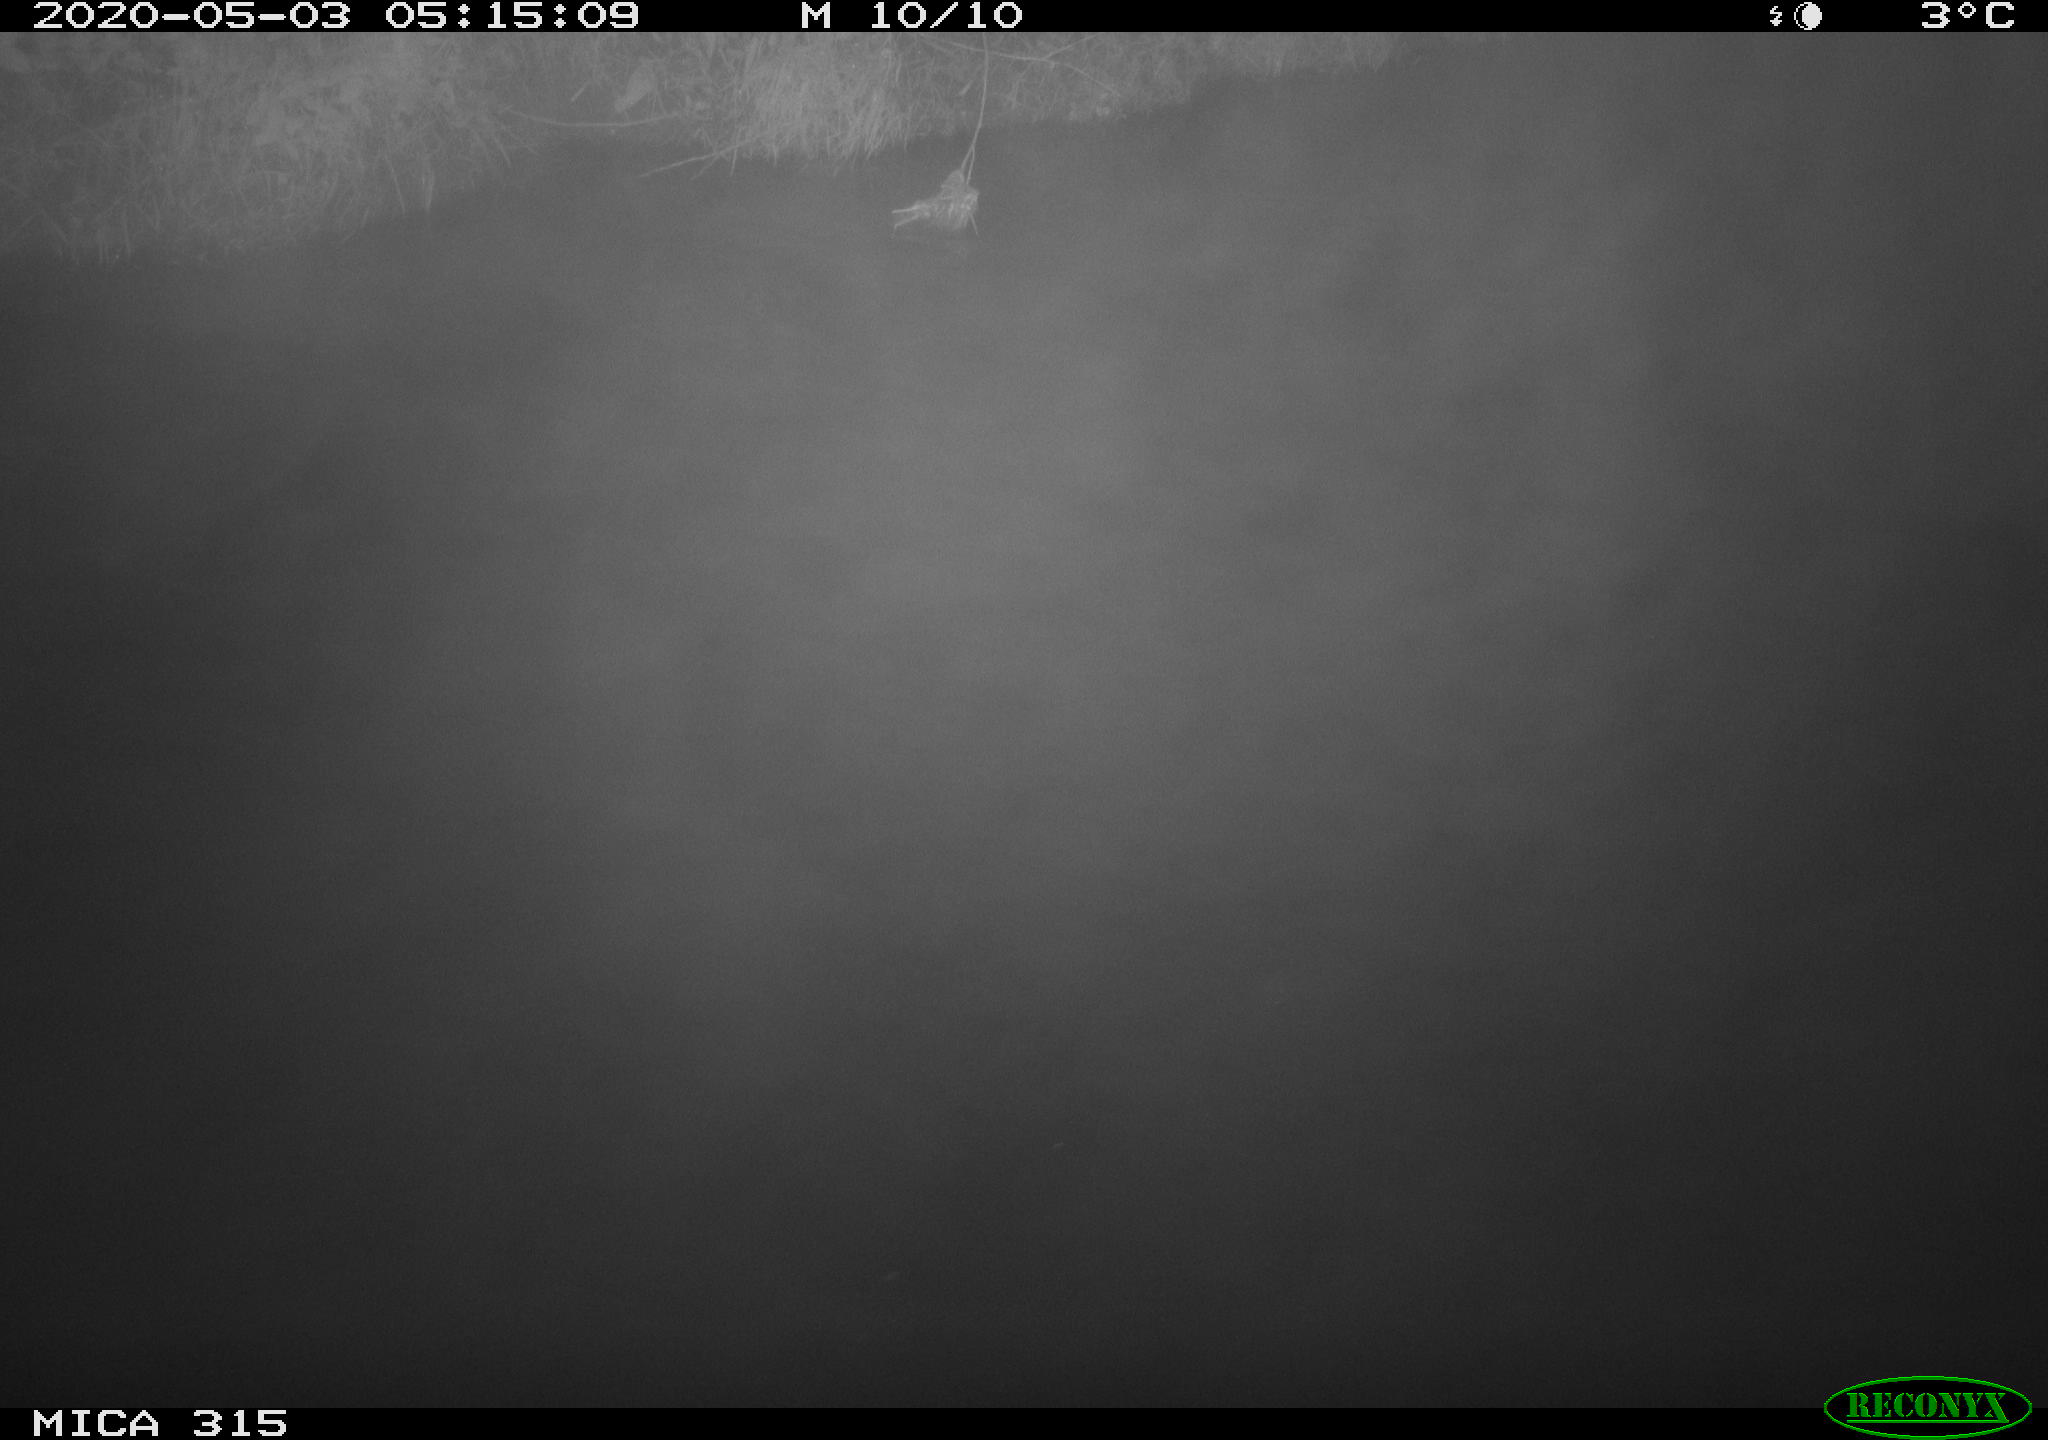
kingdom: Animalia
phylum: Chordata
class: Aves
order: Anseriformes
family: Anatidae
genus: Anas
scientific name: Anas platyrhynchos
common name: Mallard
